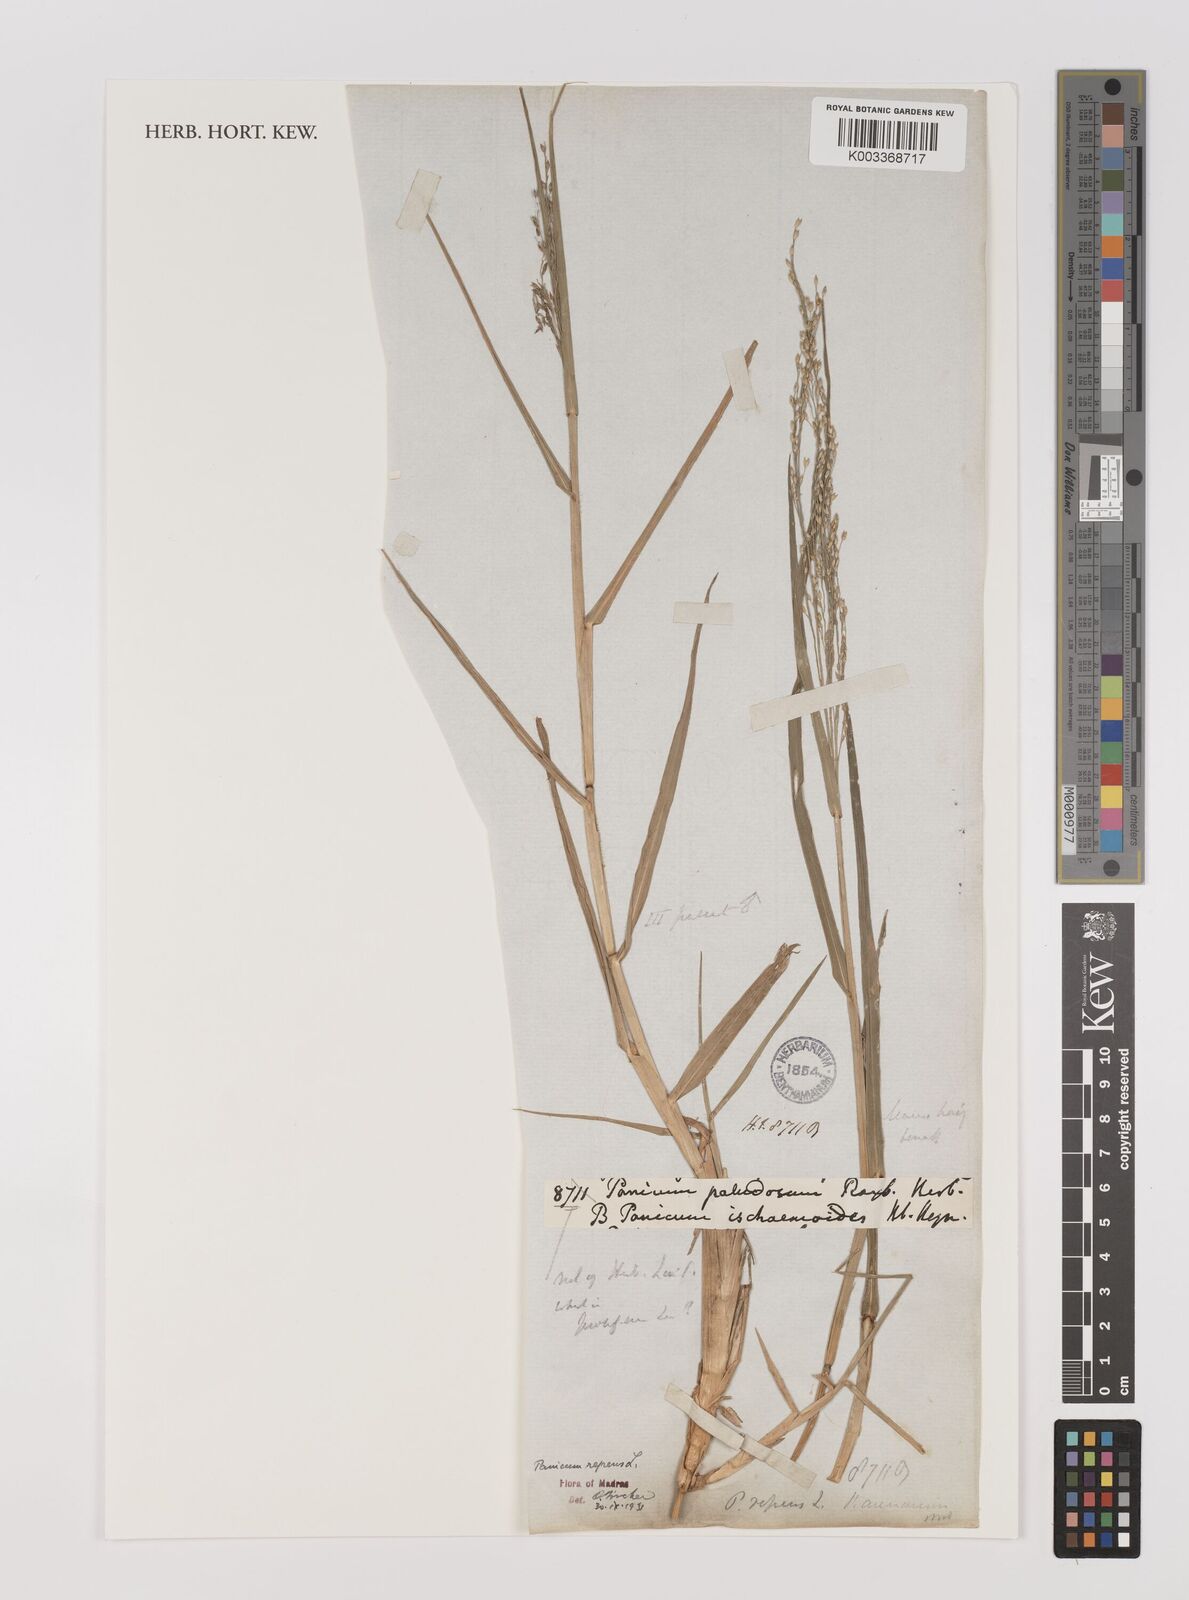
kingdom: Plantae
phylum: Tracheophyta
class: Liliopsida
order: Poales
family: Poaceae
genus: Panicum
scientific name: Panicum repens
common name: Torpedo grass
